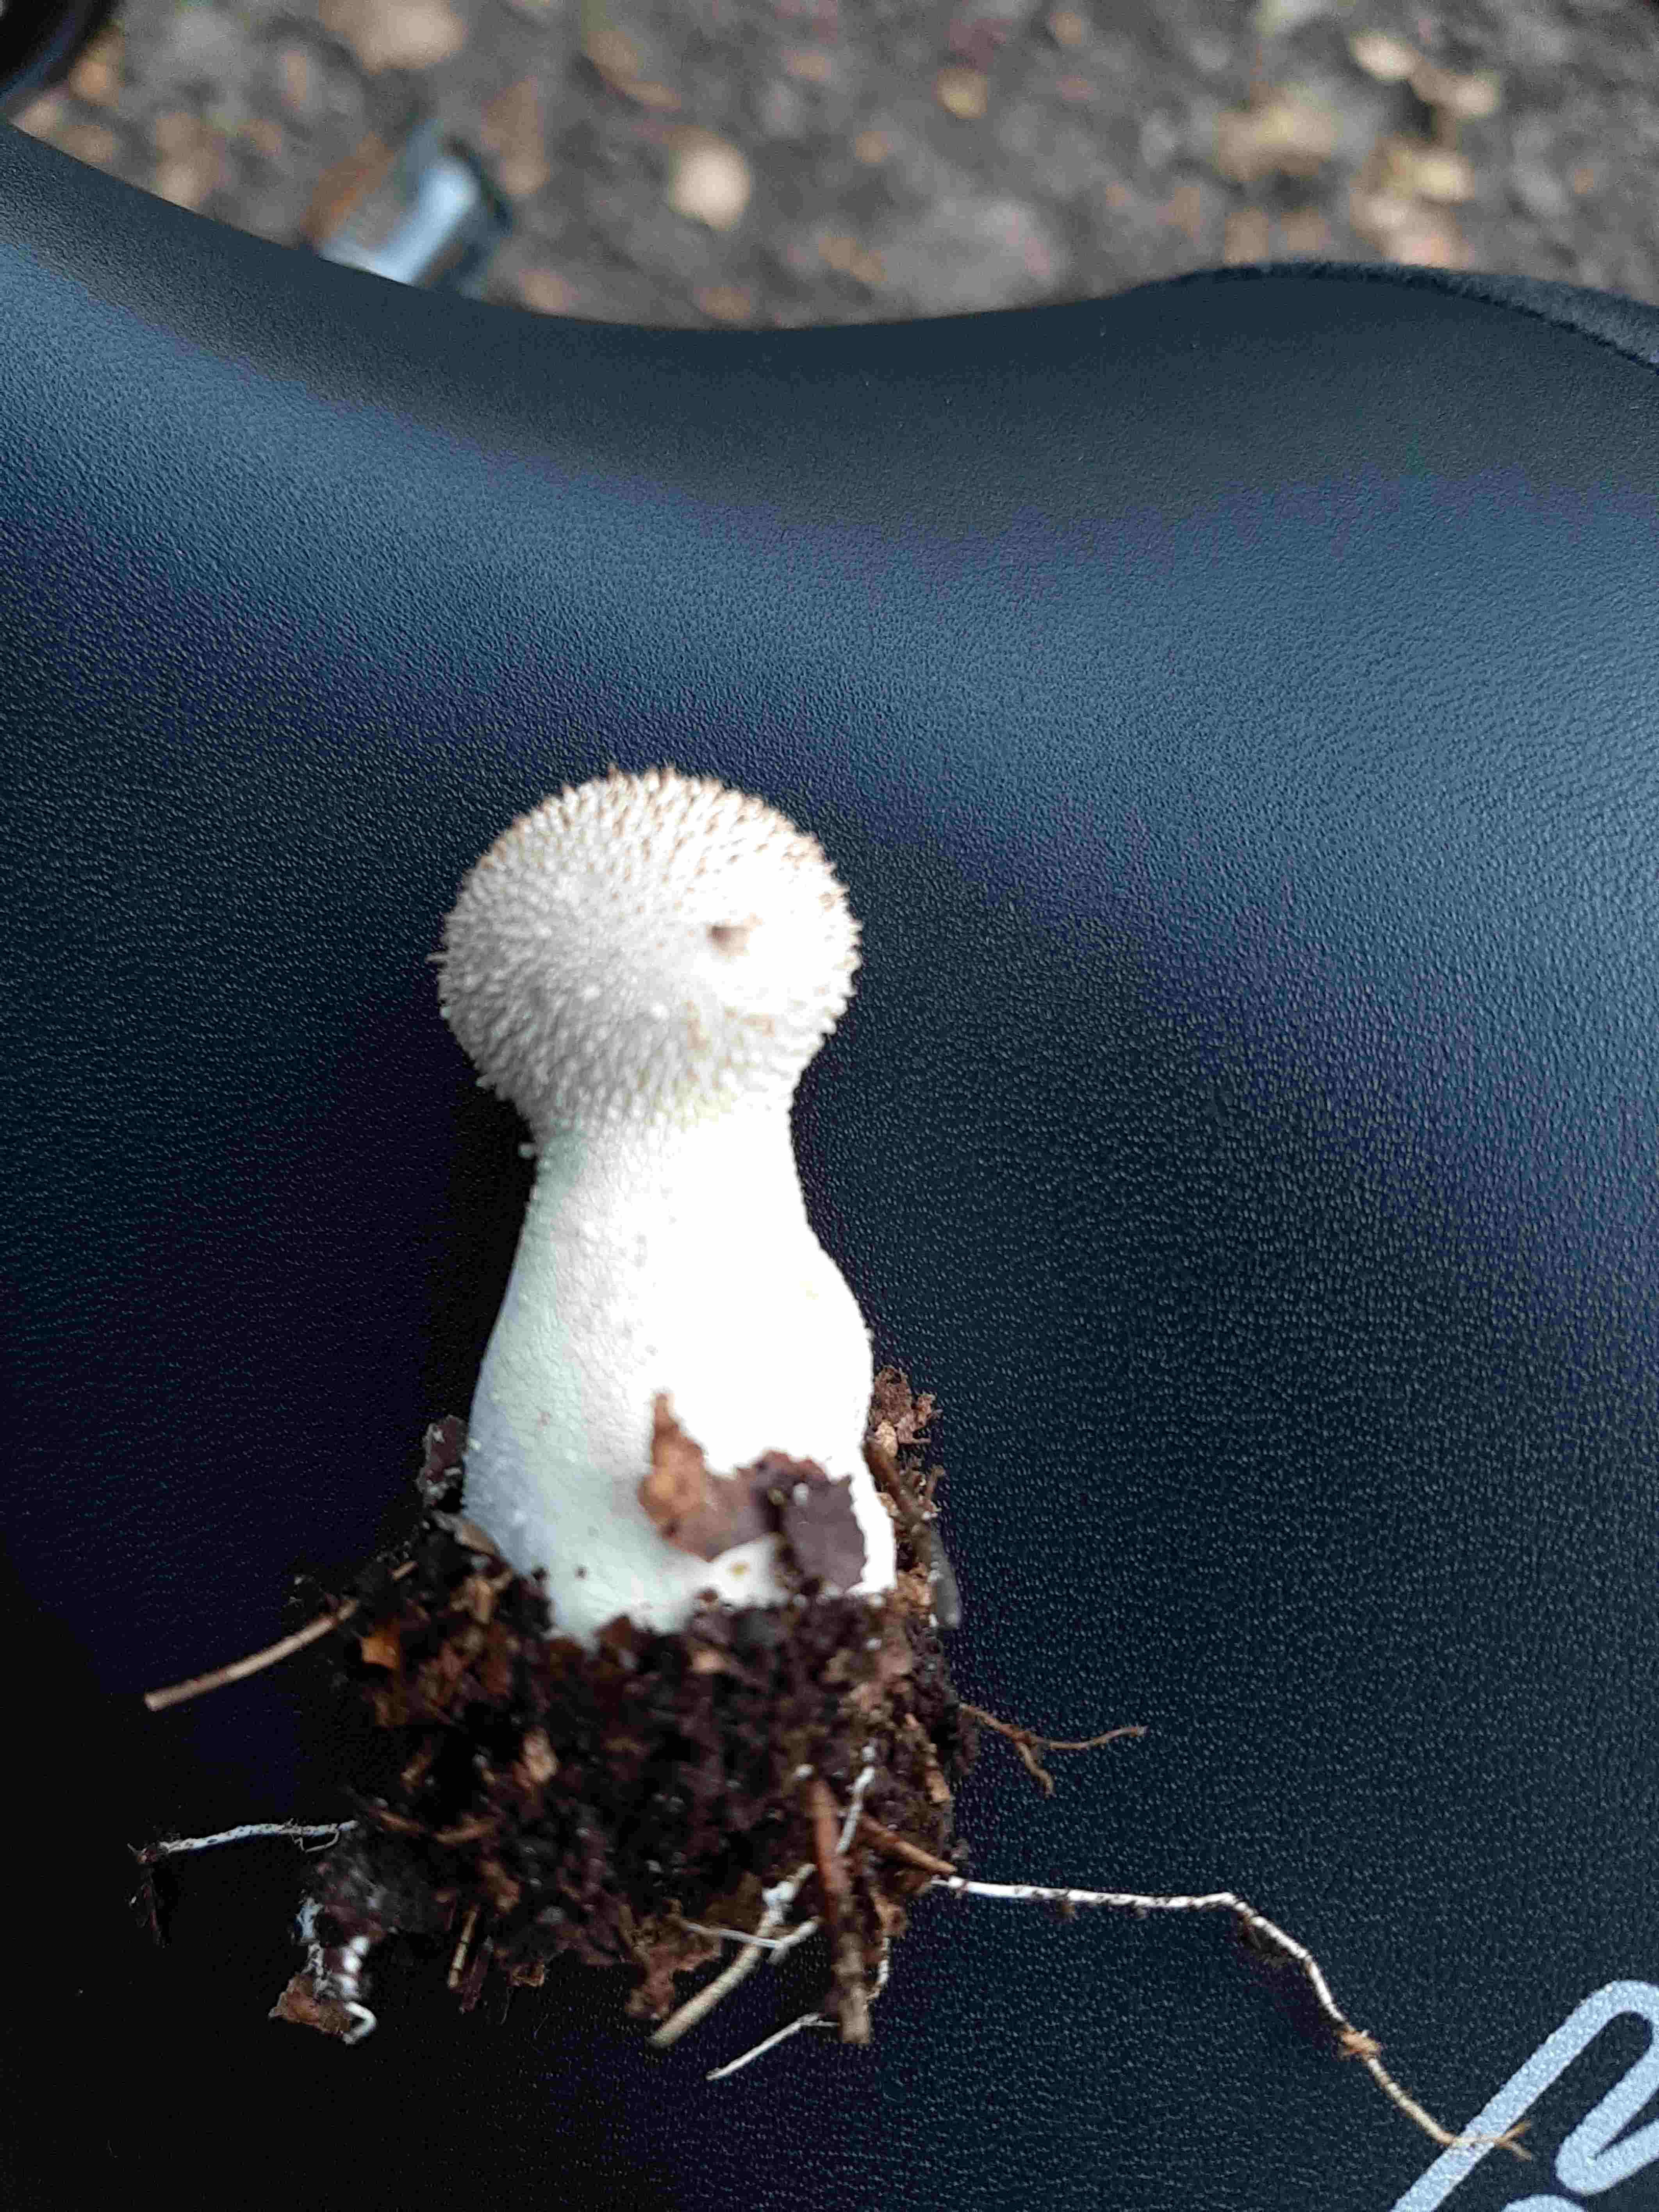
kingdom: Fungi
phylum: Basidiomycota
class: Agaricomycetes
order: Agaricales
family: Lycoperdaceae
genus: Lycoperdon
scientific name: Lycoperdon perlatum
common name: krystal-støvbold
